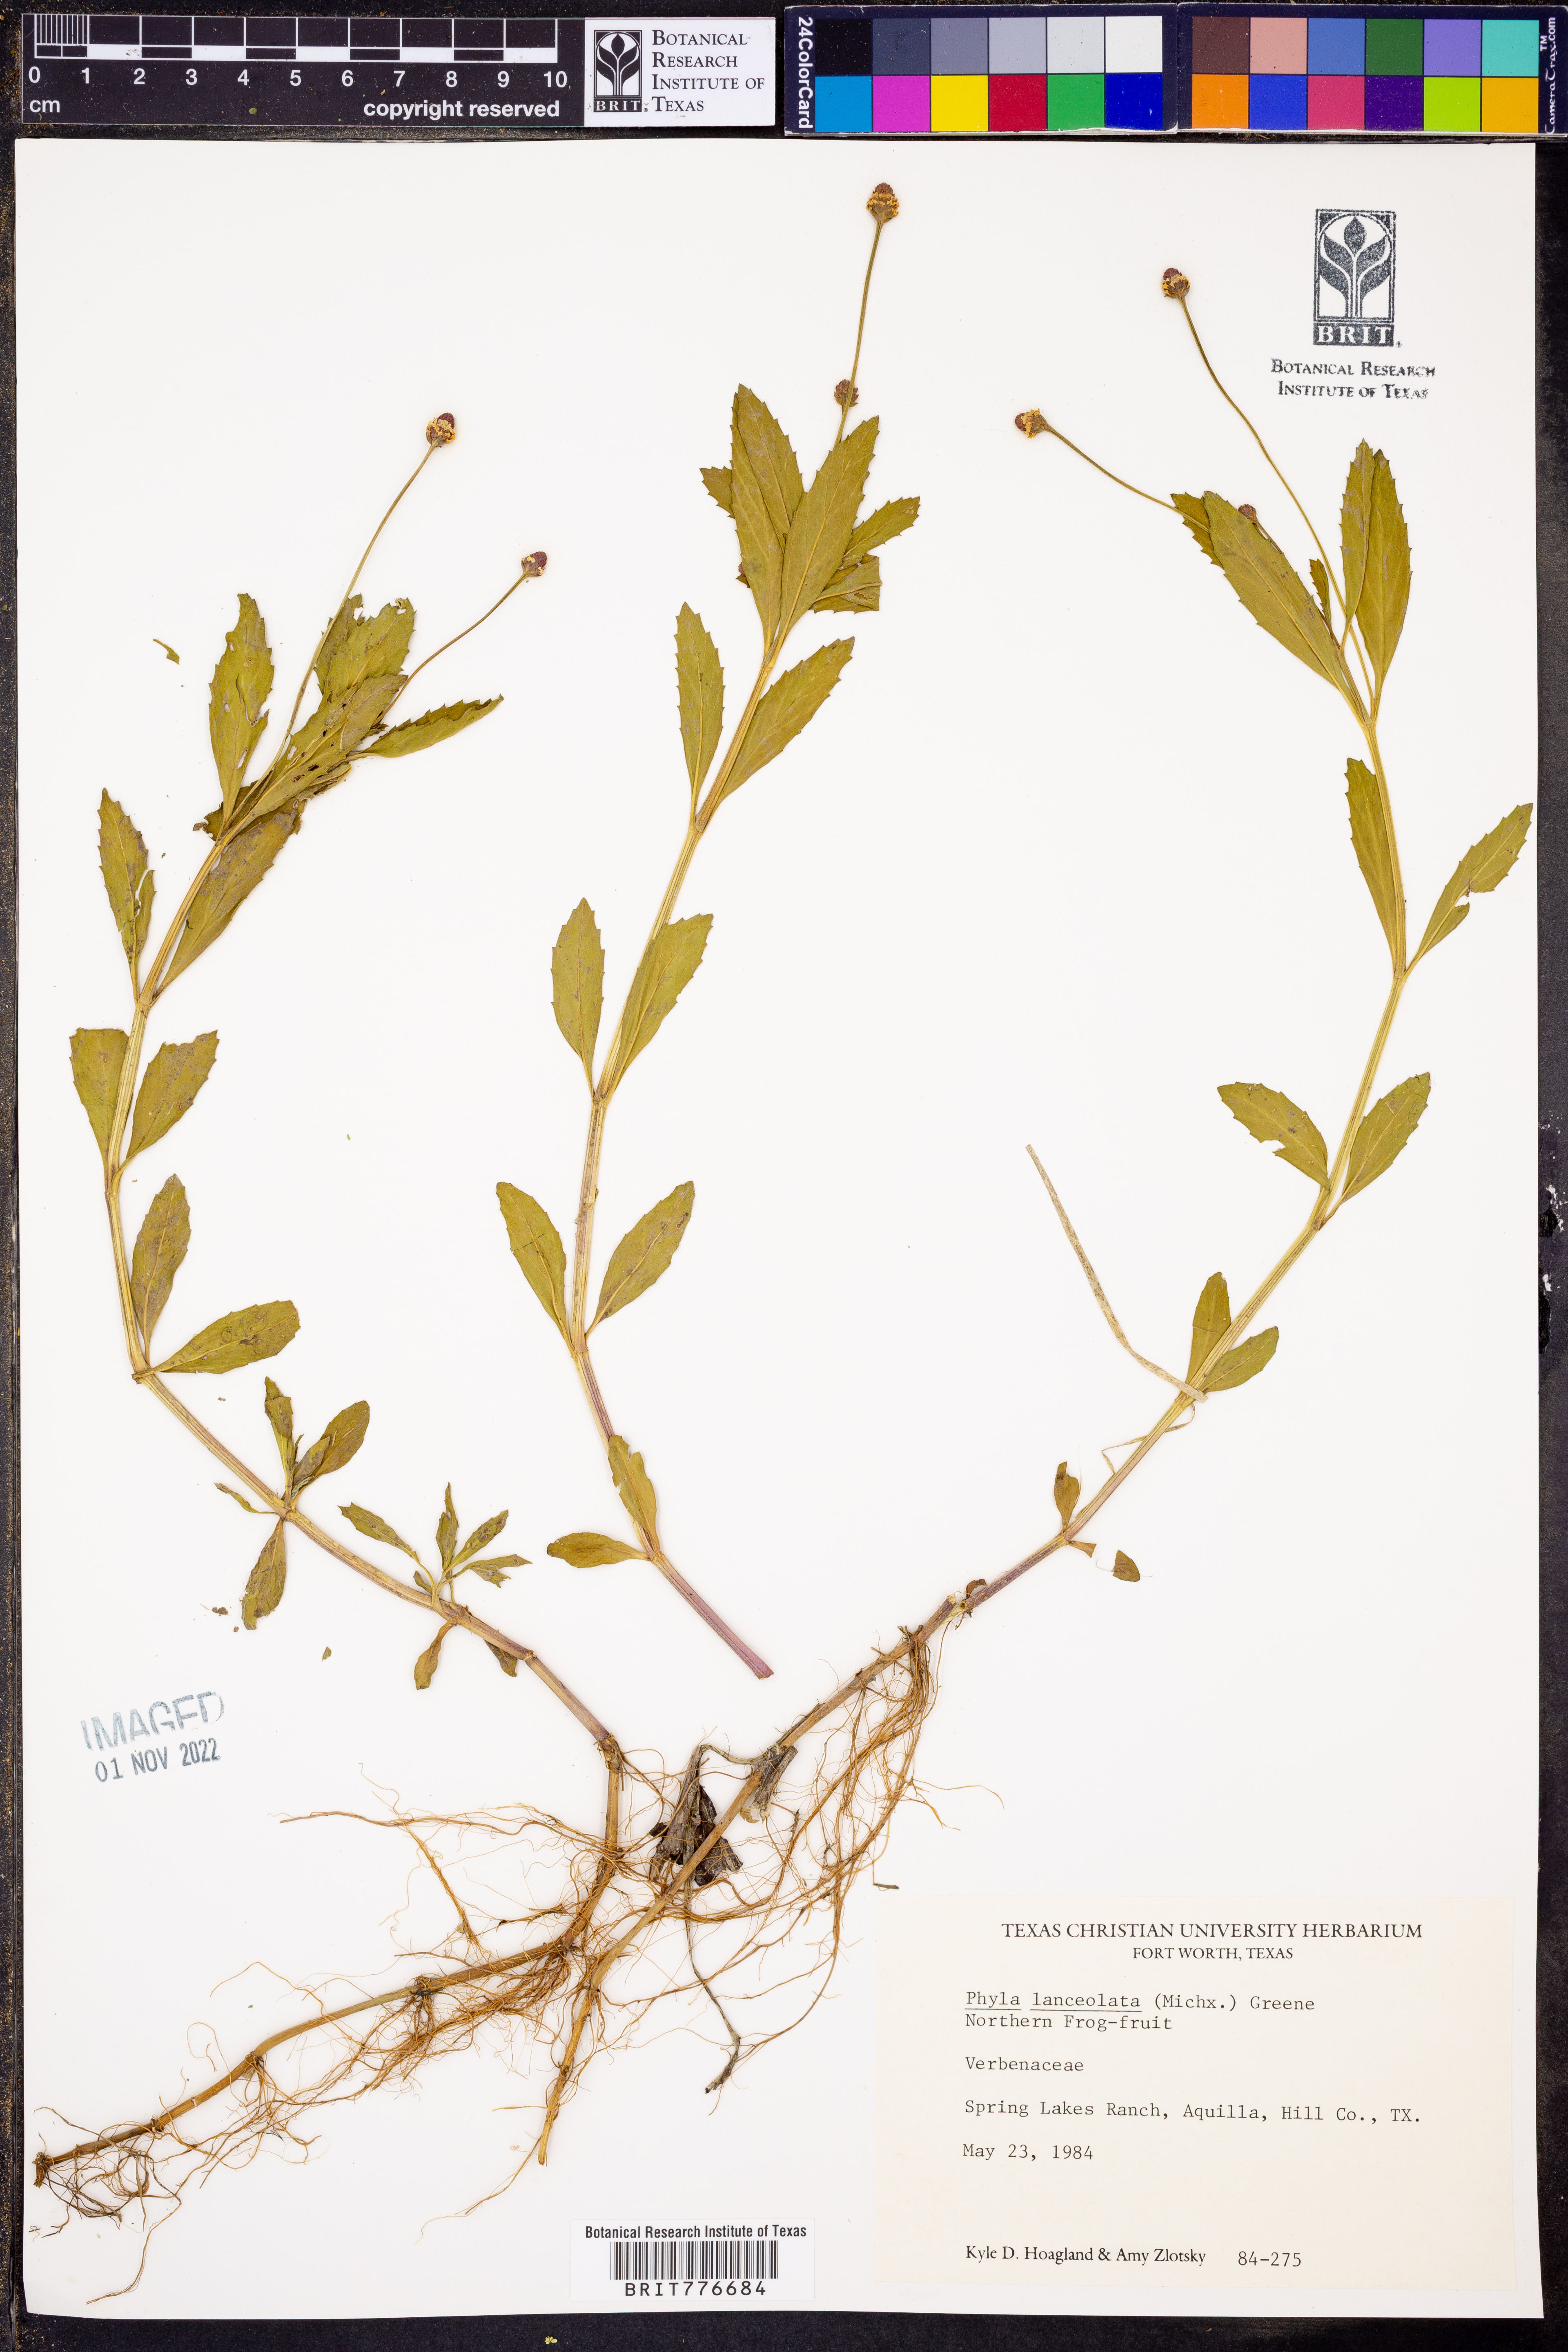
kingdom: Plantae
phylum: Tracheophyta
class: Magnoliopsida
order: Lamiales
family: Verbenaceae
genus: Phyla
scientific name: Phyla lanceolata
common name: Northern fogfruit
